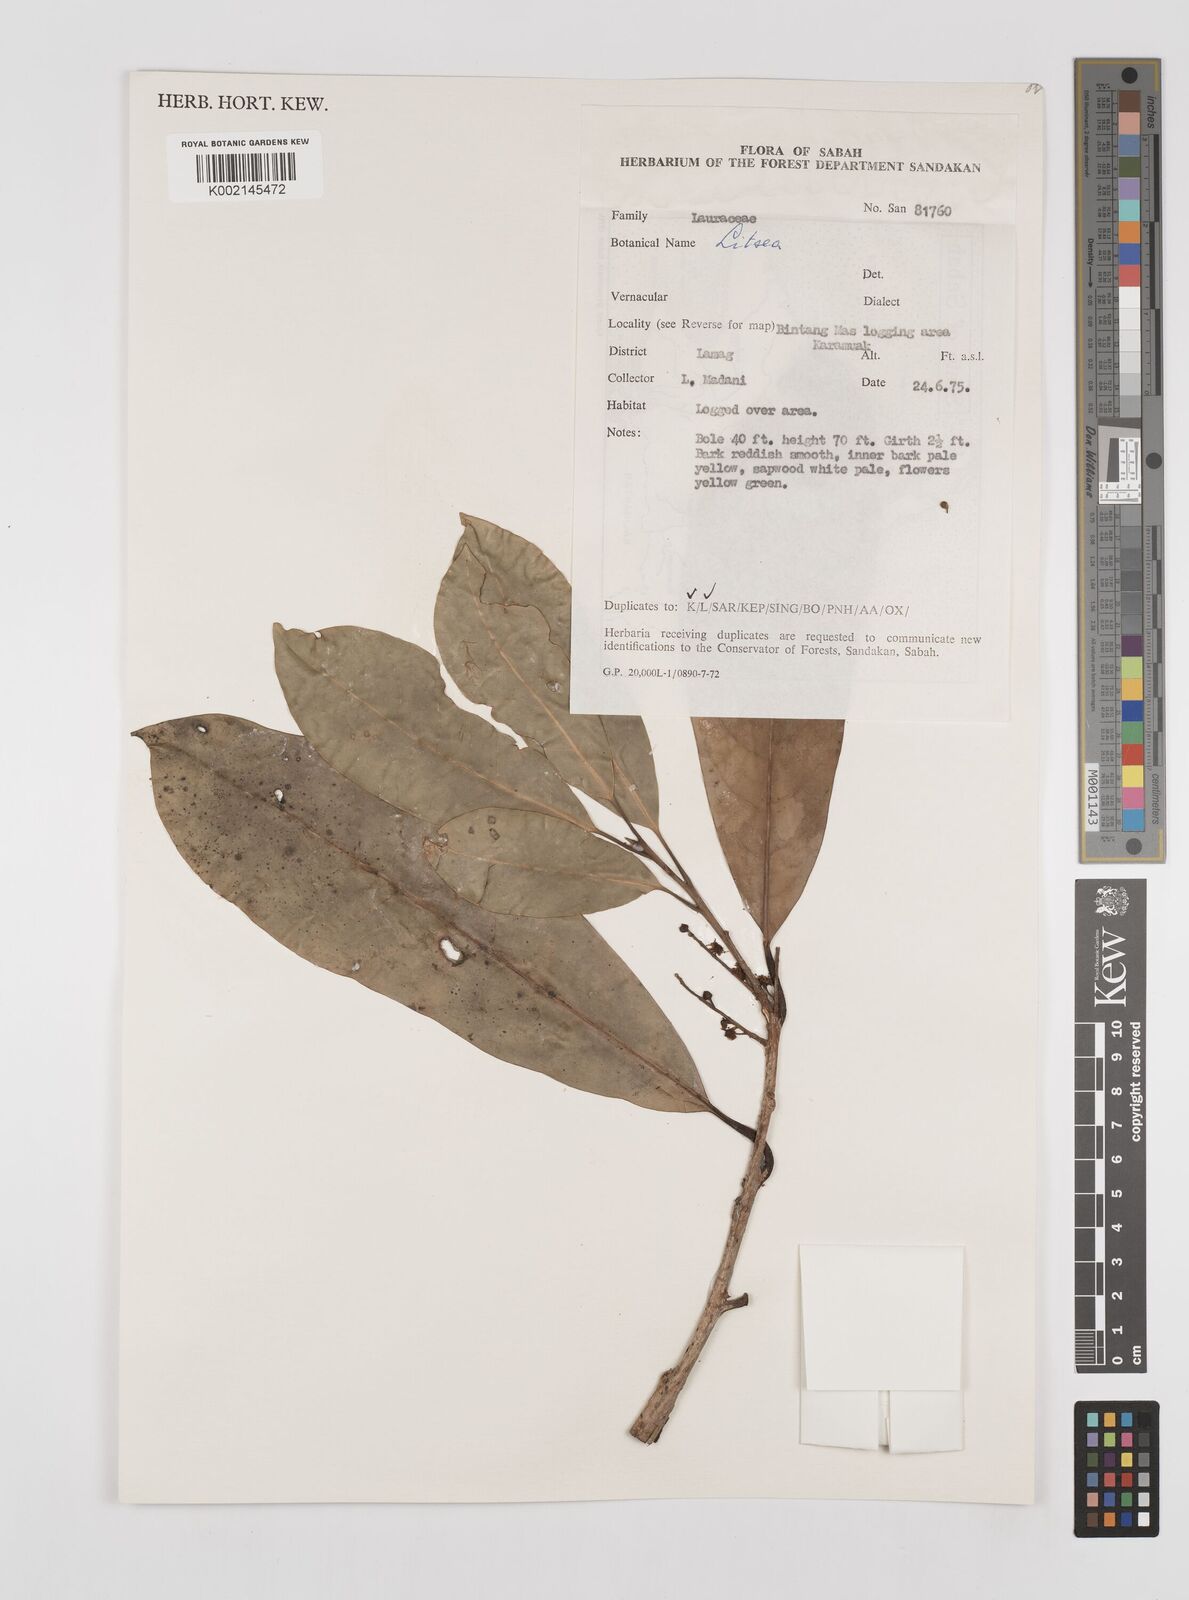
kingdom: Plantae
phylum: Tracheophyta
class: Magnoliopsida
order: Laurales
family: Lauraceae
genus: Litsea
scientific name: Litsea
